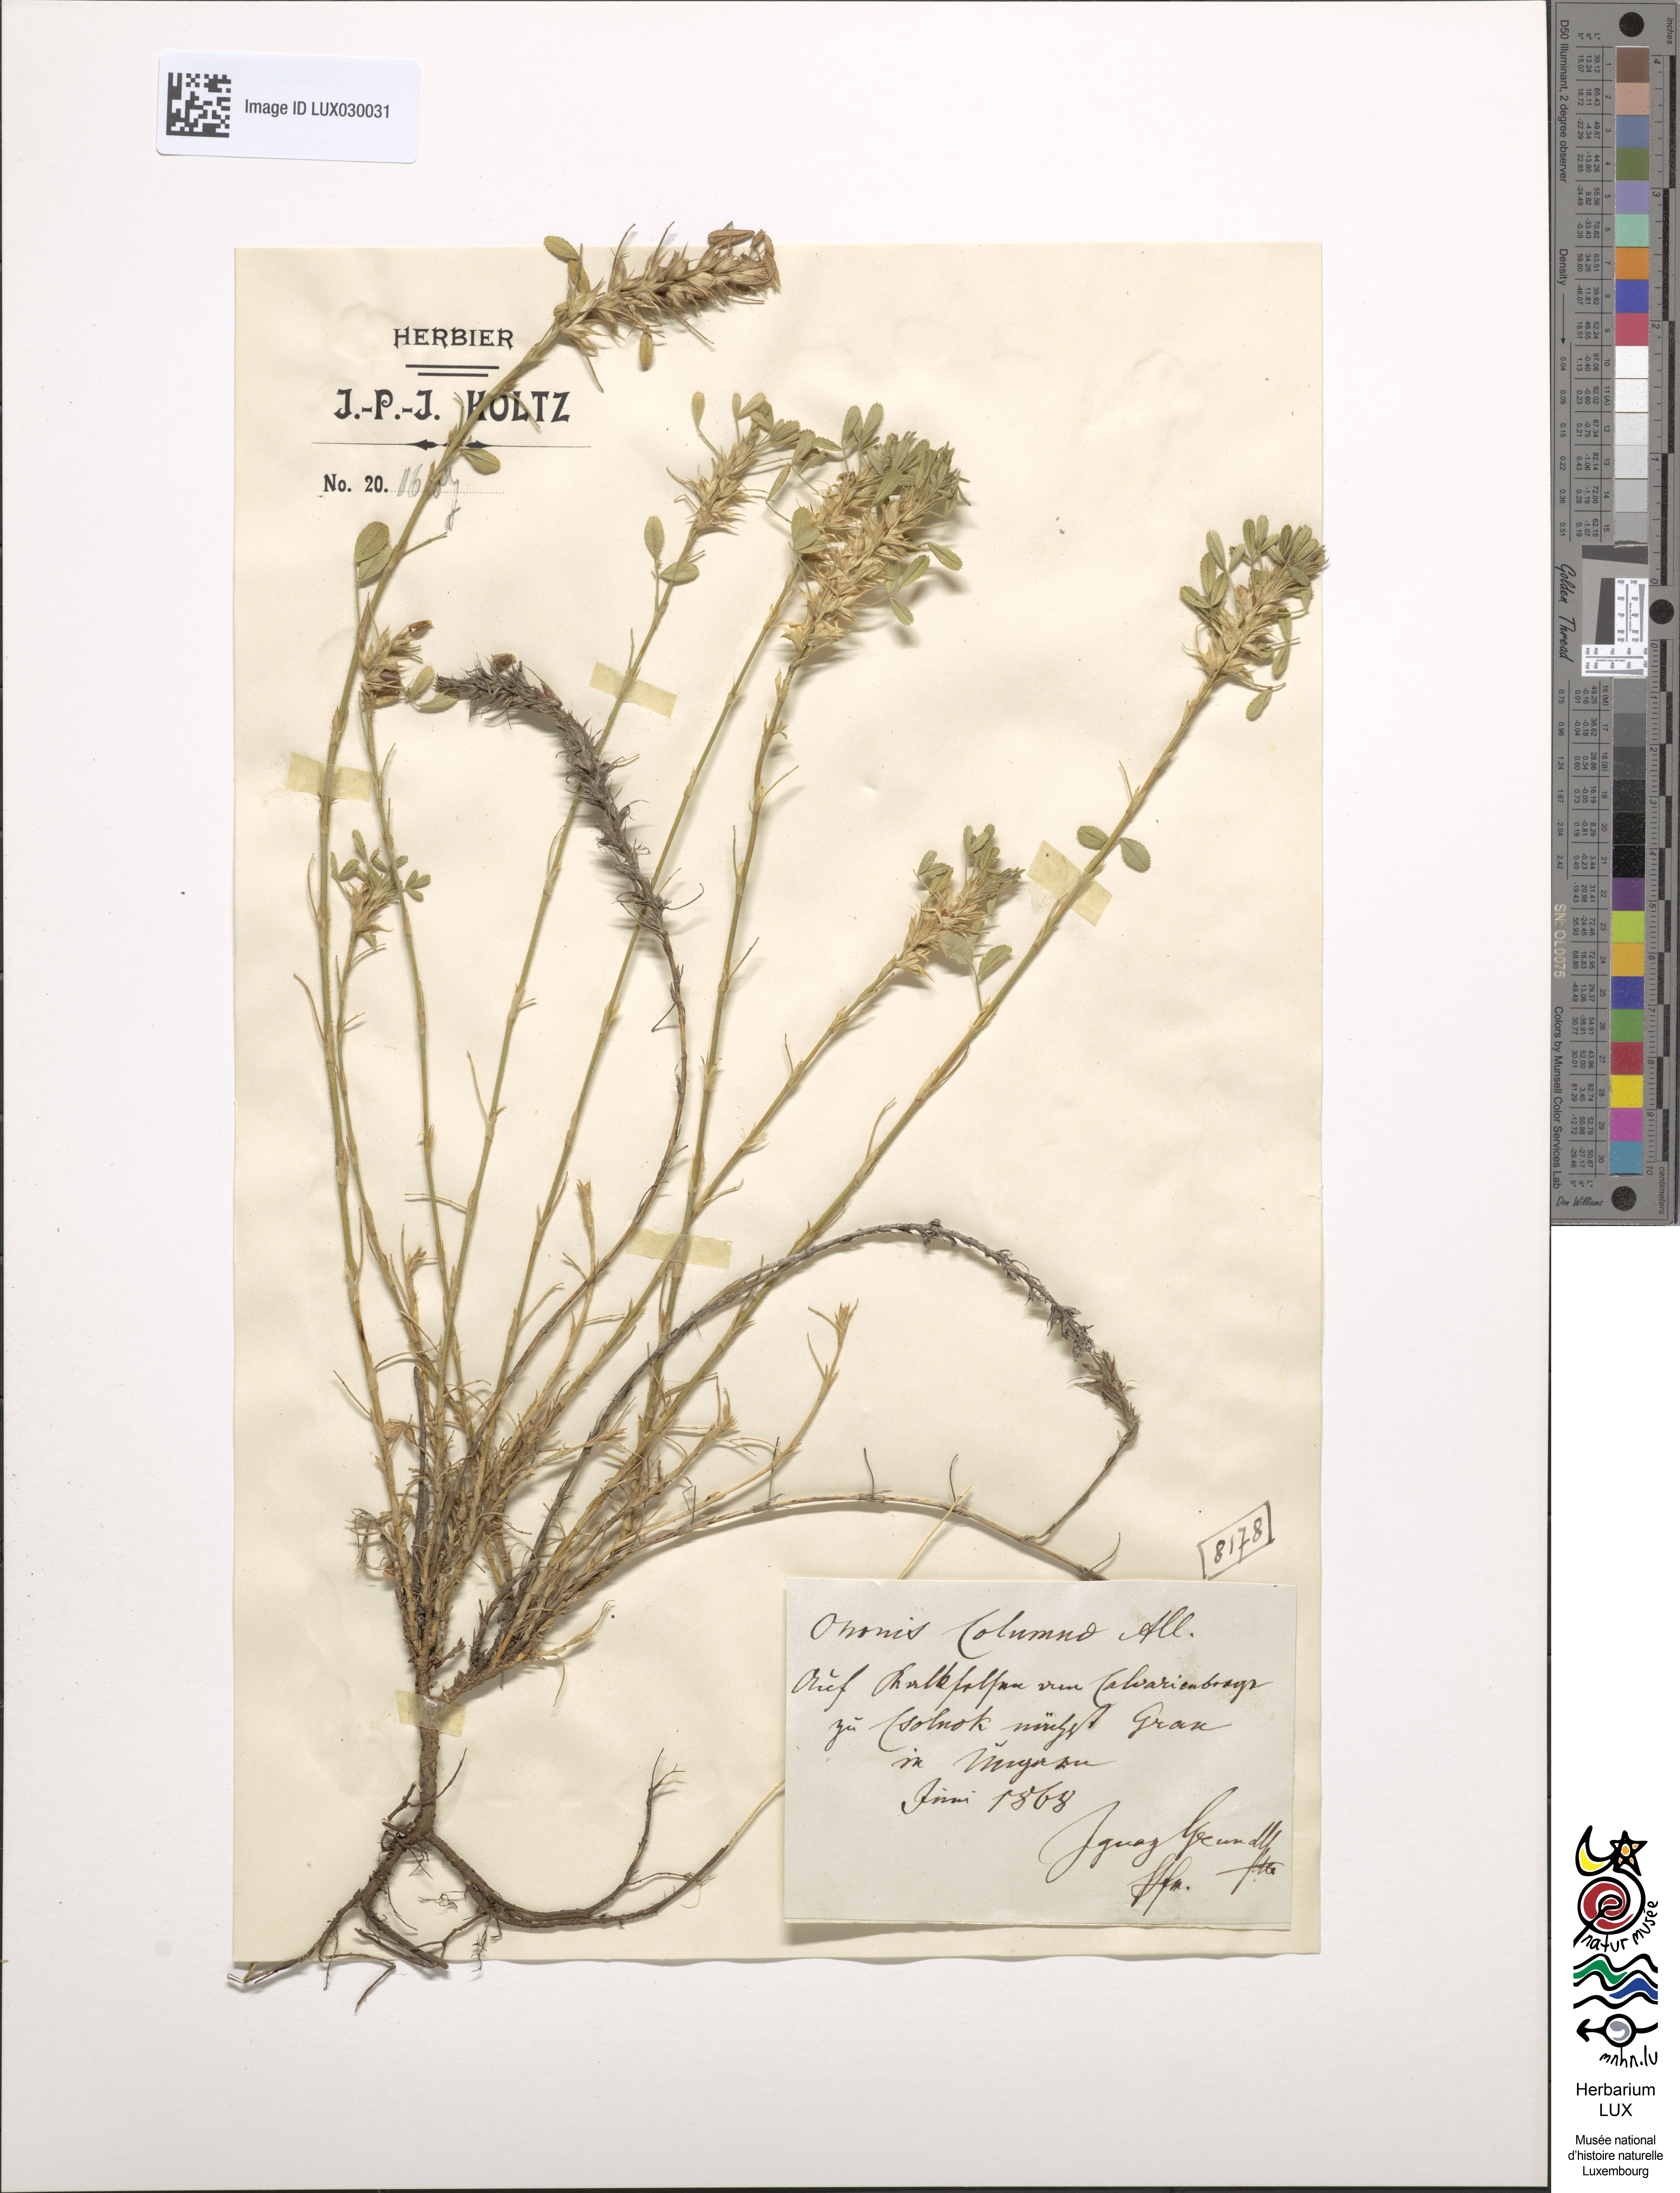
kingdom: Plantae
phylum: Tracheophyta
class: Magnoliopsida
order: Fabales
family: Fabaceae
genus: Ononis
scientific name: Ononis pusilla
